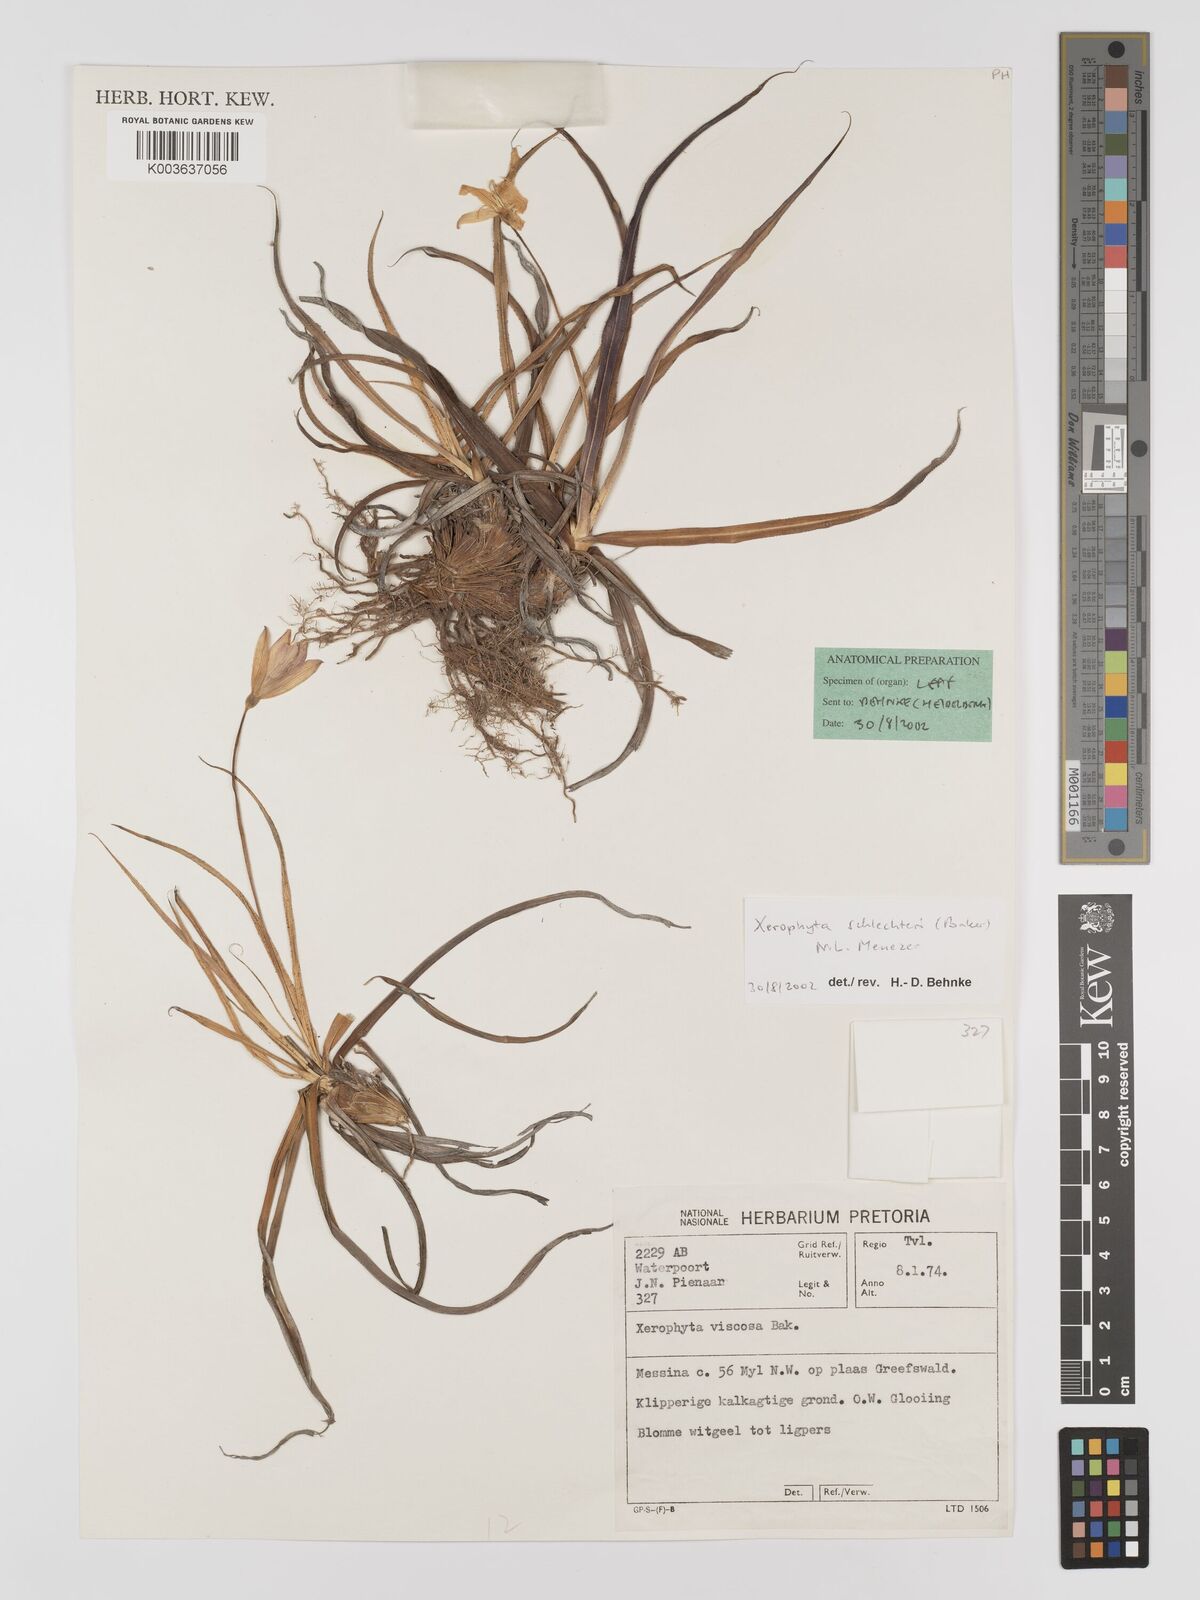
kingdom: Plantae
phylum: Tracheophyta
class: Liliopsida
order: Pandanales
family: Velloziaceae
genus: Xerophyta
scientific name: Xerophyta schlechteri
